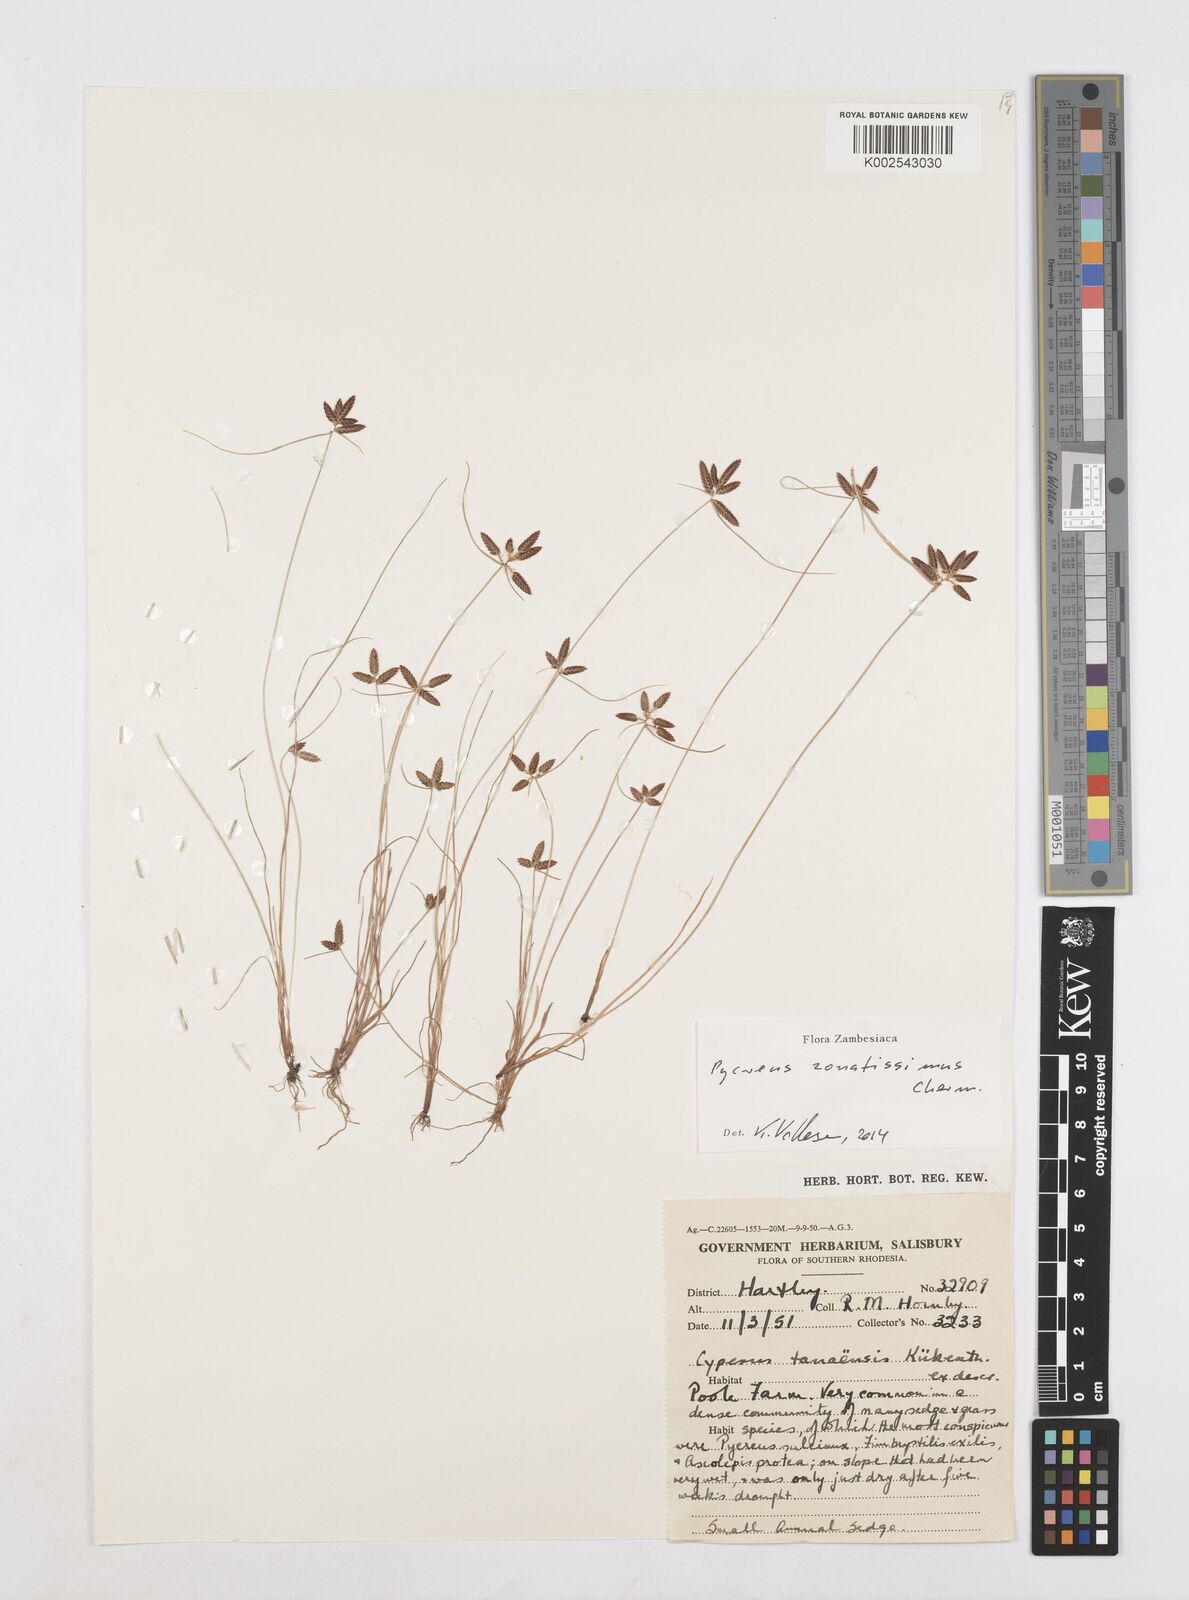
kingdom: Plantae
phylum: Tracheophyta
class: Liliopsida
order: Poales
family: Cyperaceae
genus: Cyperus
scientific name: Cyperus zonatissimus
